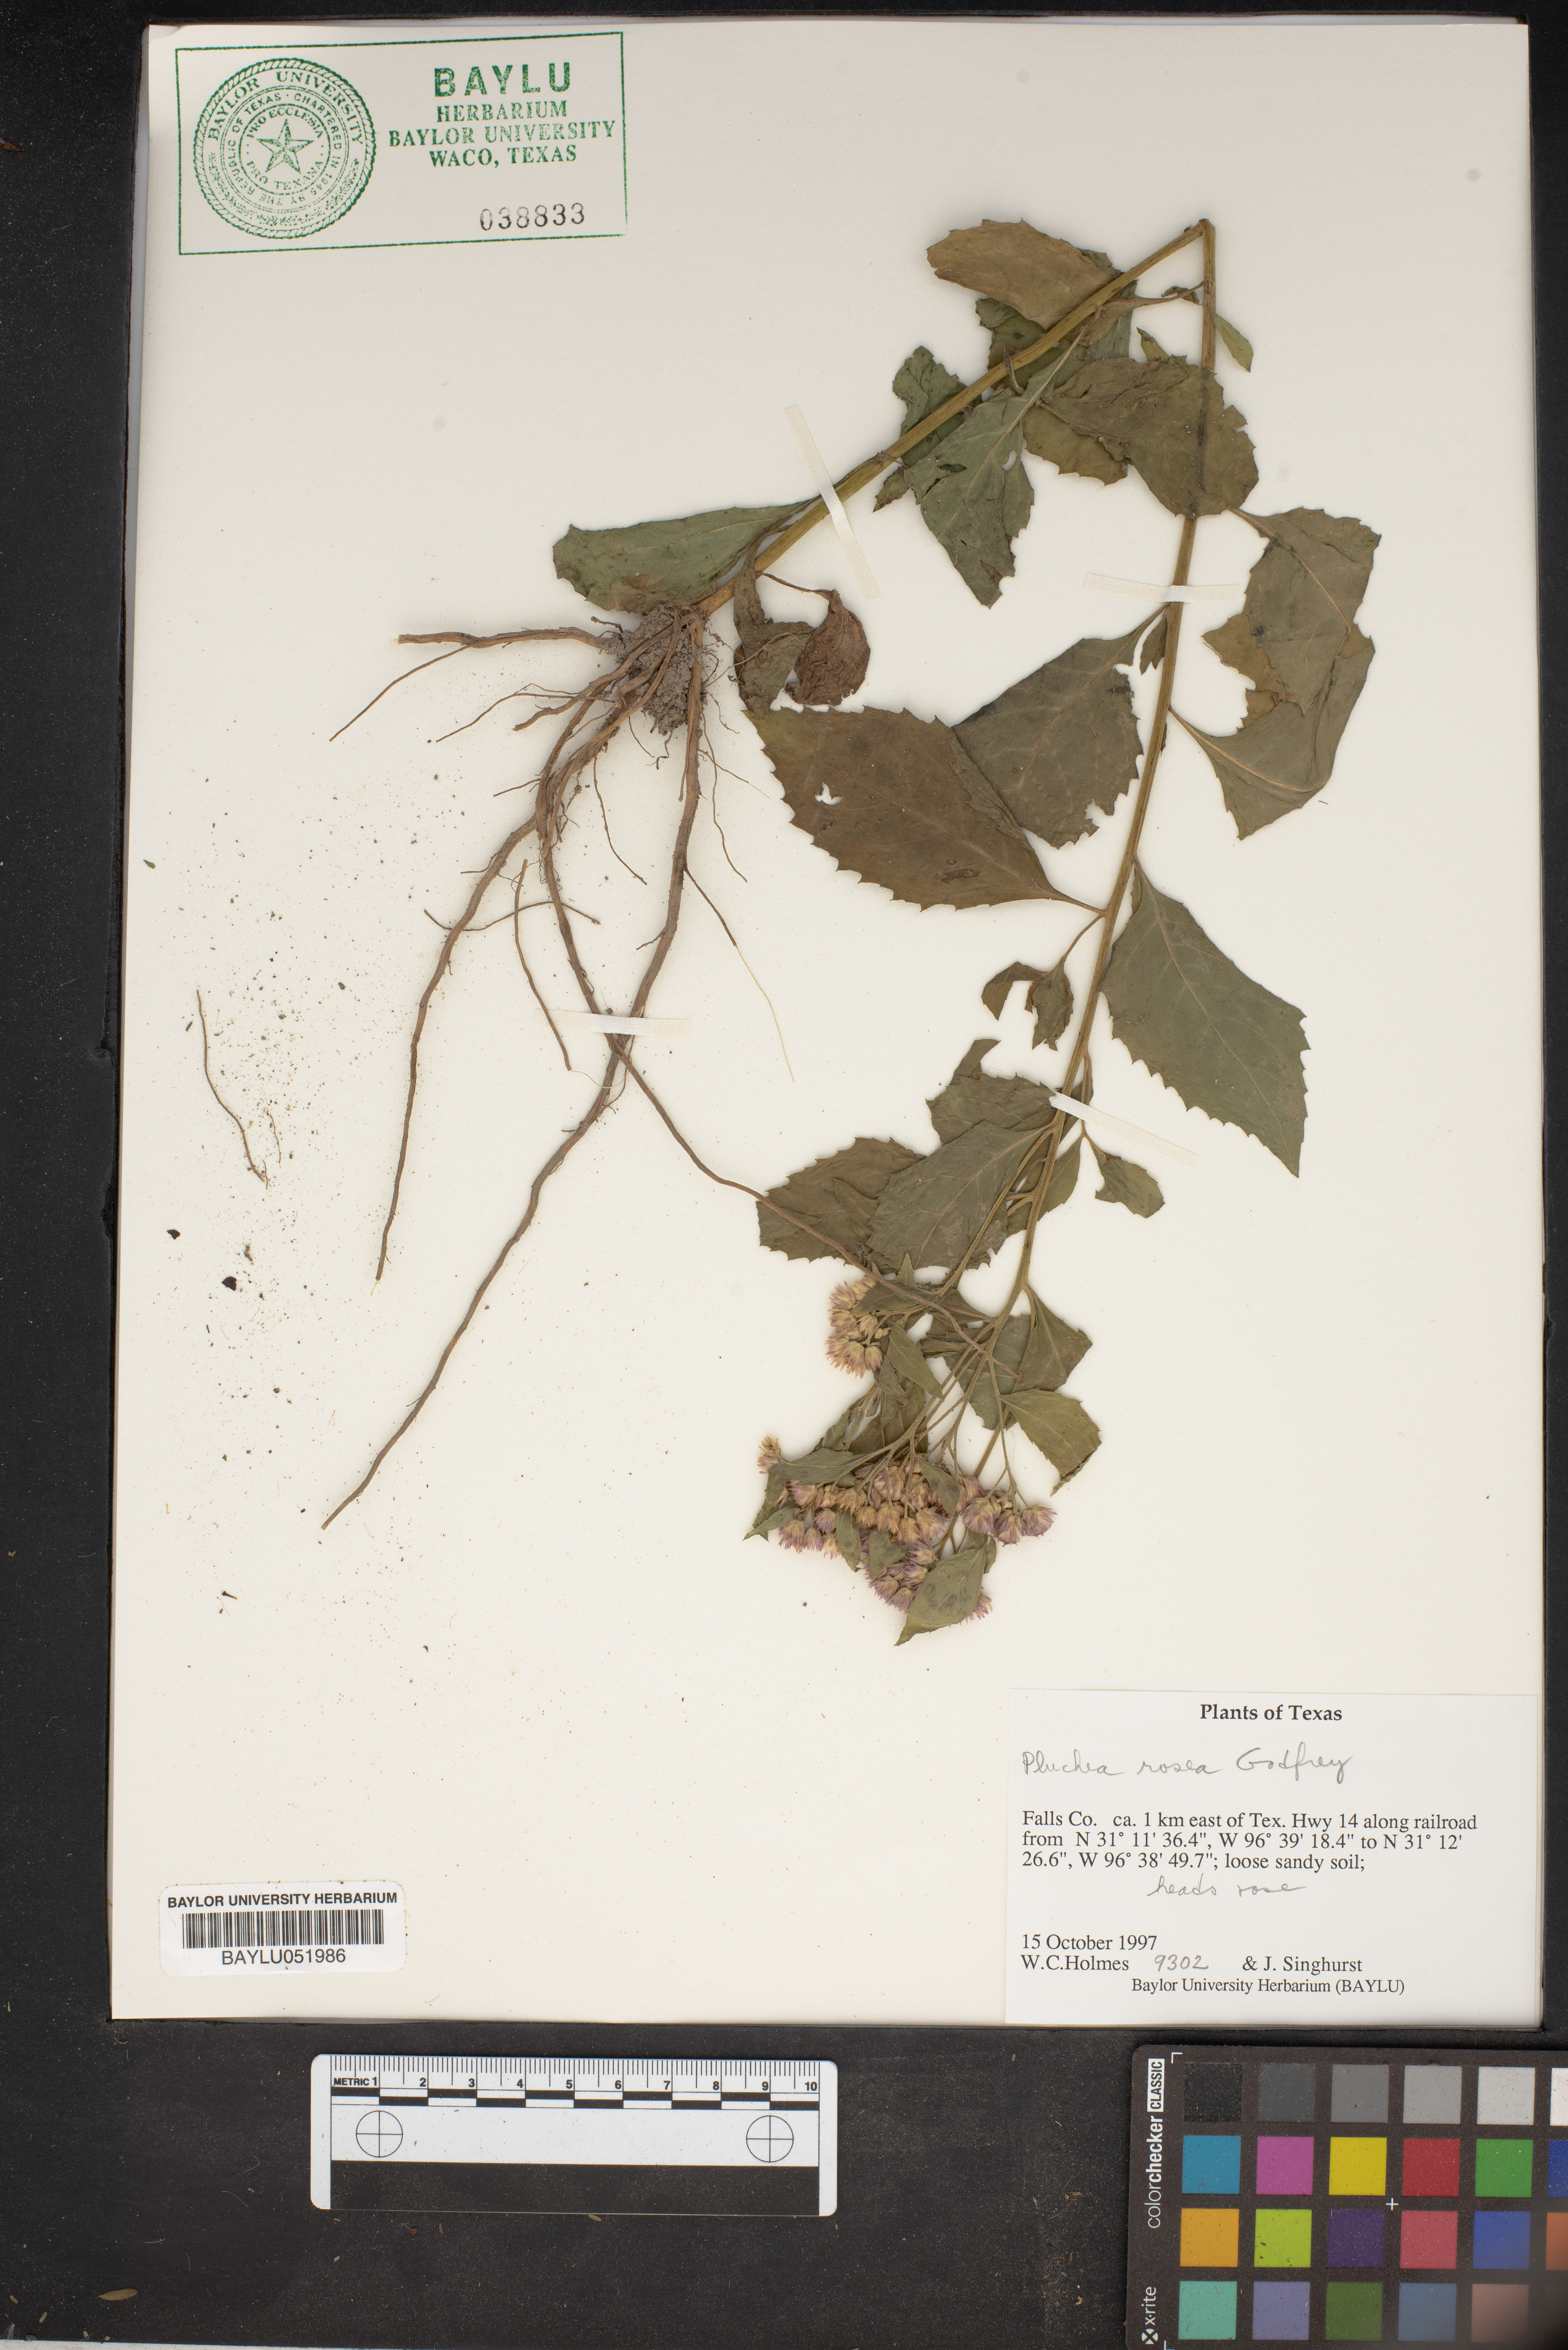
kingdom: Plantae
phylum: Tracheophyta
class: Magnoliopsida
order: Asterales
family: Asteraceae
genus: Pluchea
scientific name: Pluchea baccharis
